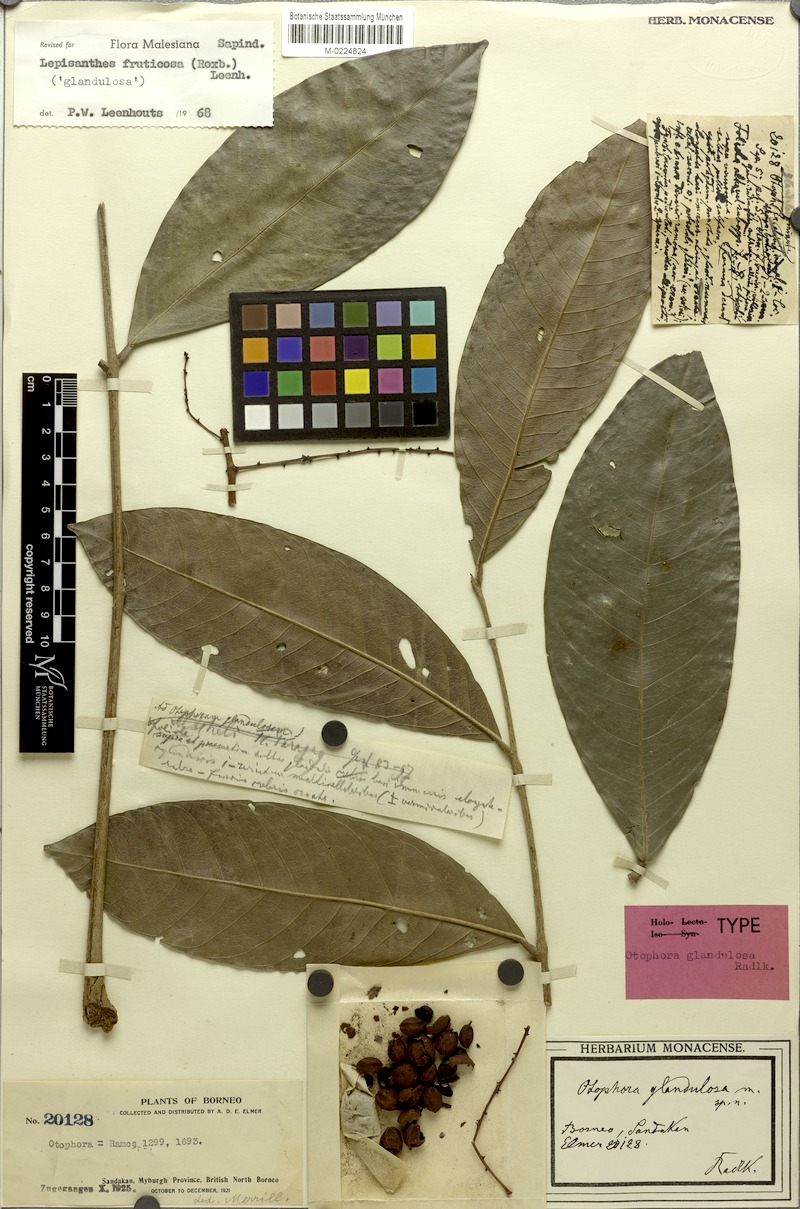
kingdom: Plantae
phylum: Tracheophyta
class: Magnoliopsida
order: Sapindales
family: Sapindaceae
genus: Lepisanthes
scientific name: Lepisanthes fruticosa
